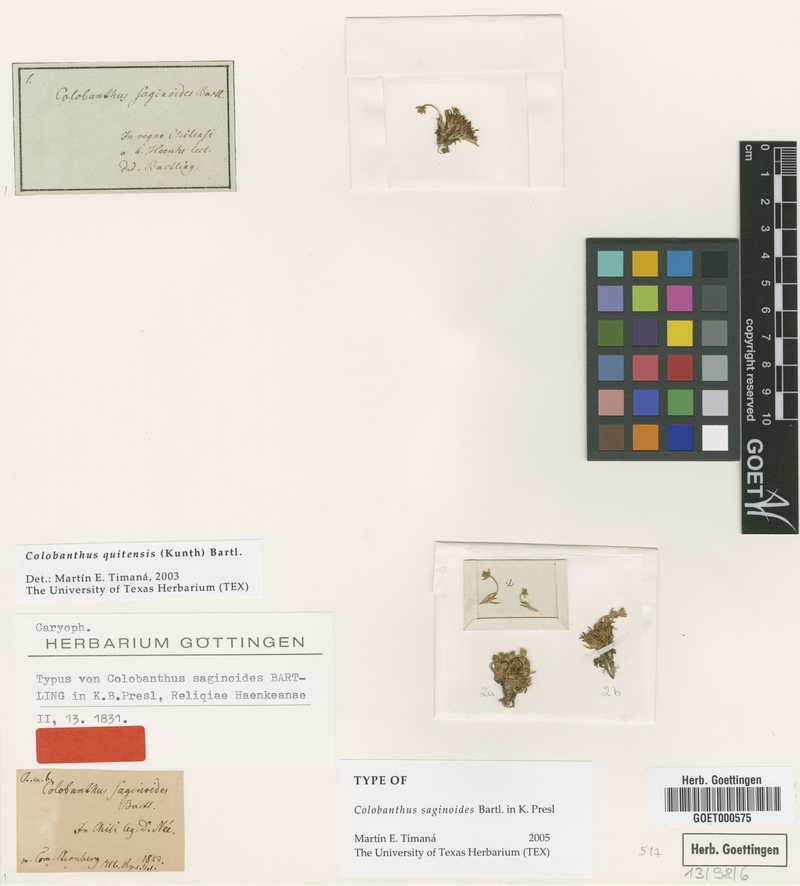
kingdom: Plantae
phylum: Tracheophyta
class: Magnoliopsida
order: Caryophyllales
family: Caryophyllaceae
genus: Colobanthus
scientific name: Colobanthus quitensis
